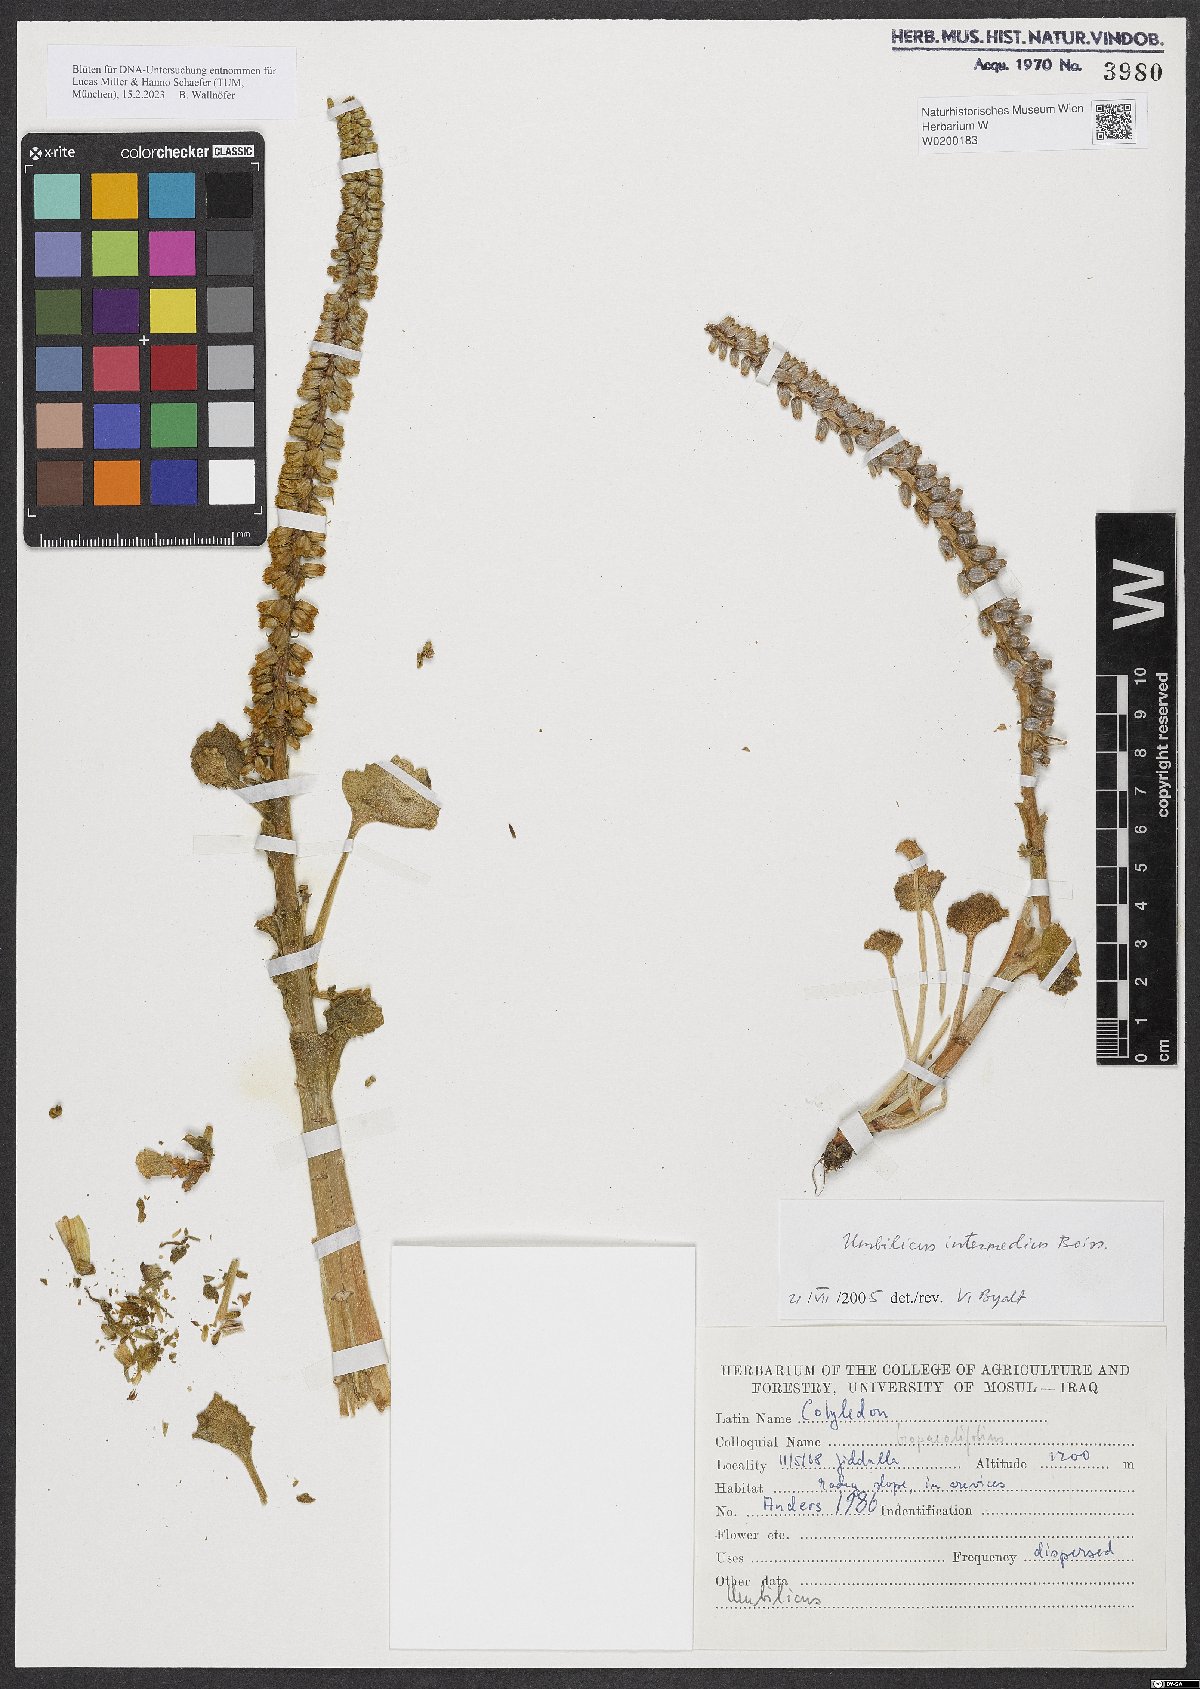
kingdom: Plantae
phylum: Tracheophyta
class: Magnoliopsida
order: Saxifragales
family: Crassulaceae
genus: Umbilicus
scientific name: Umbilicus horizontalis
